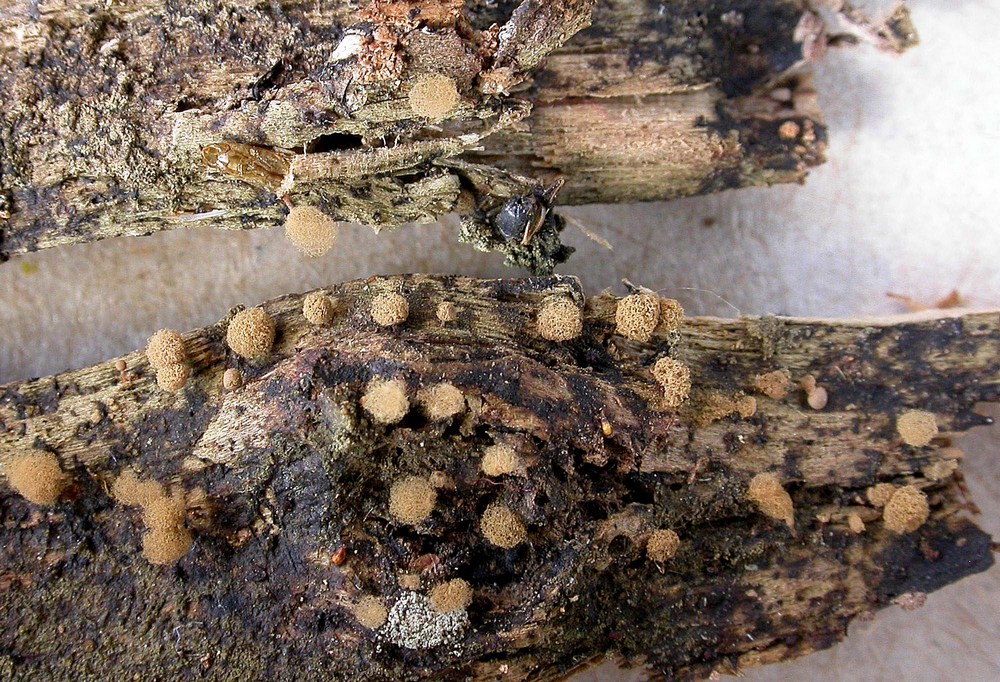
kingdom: Protozoa
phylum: Mycetozoa
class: Myxomycetes
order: Trichiales
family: Arcyriaceae
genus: Arcyria
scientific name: Arcyria pomiformis
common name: Golden apple slime mold
